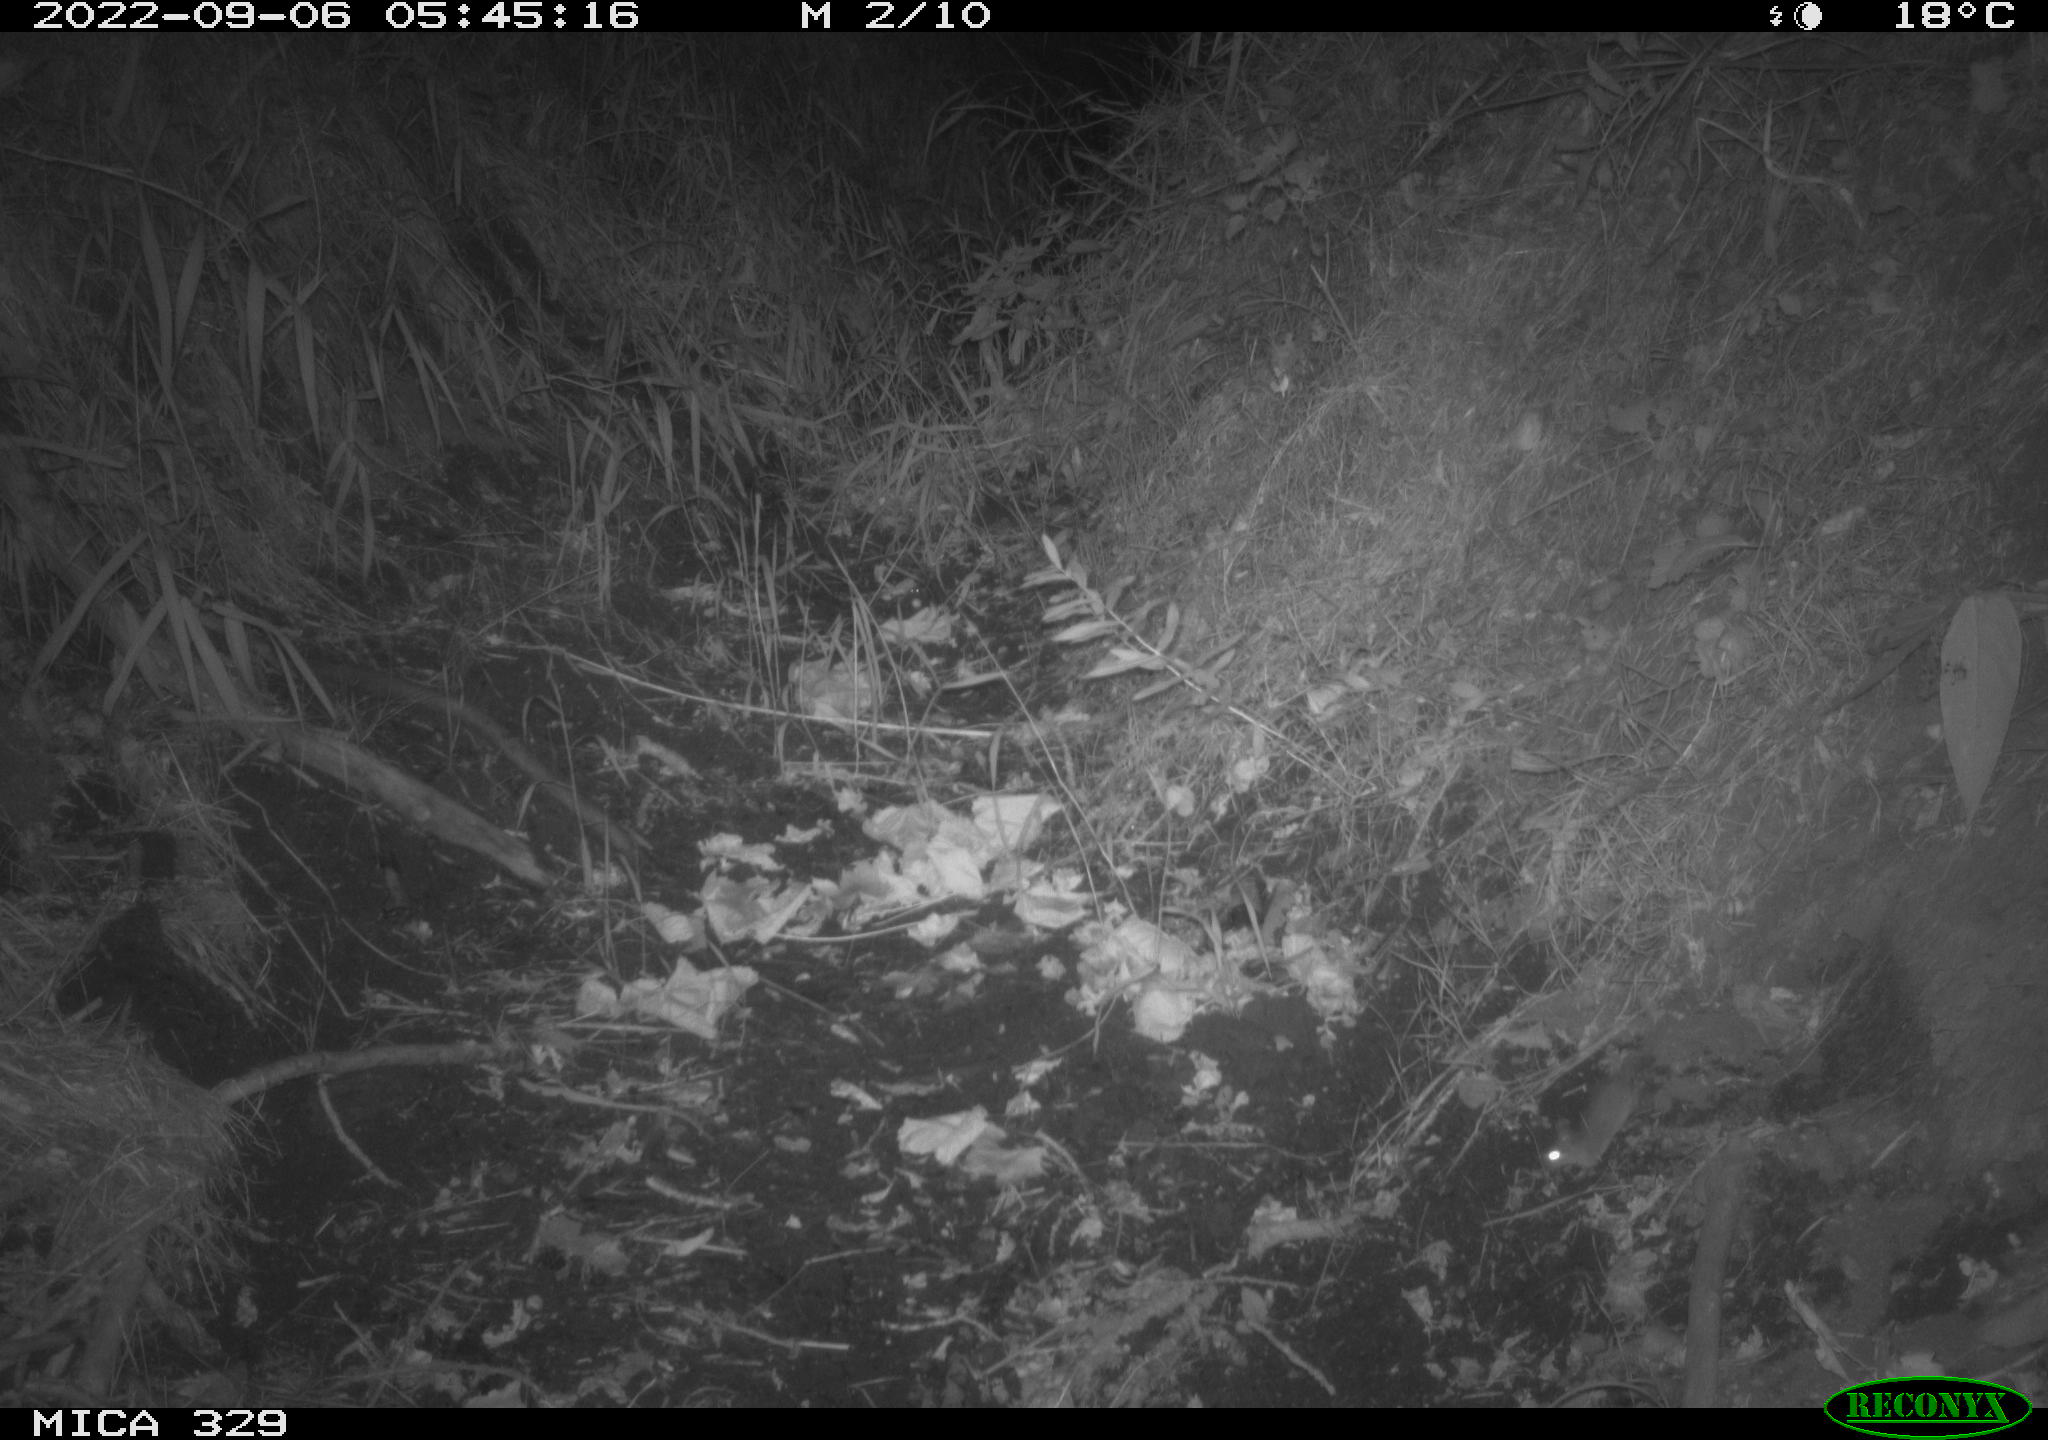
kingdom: Animalia
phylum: Chordata
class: Mammalia
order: Rodentia
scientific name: Rodentia
